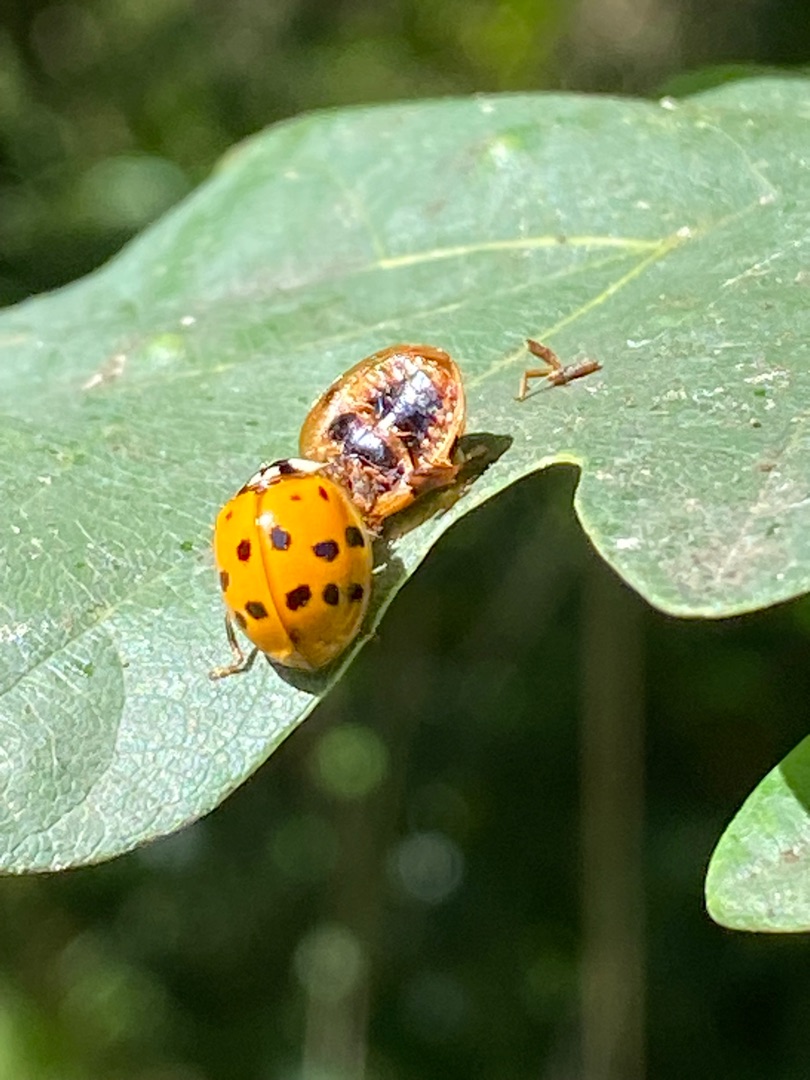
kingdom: Animalia
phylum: Arthropoda
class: Insecta
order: Coleoptera
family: Coccinellidae
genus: Harmonia
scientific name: Harmonia axyridis
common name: Harlekinmariehøne
